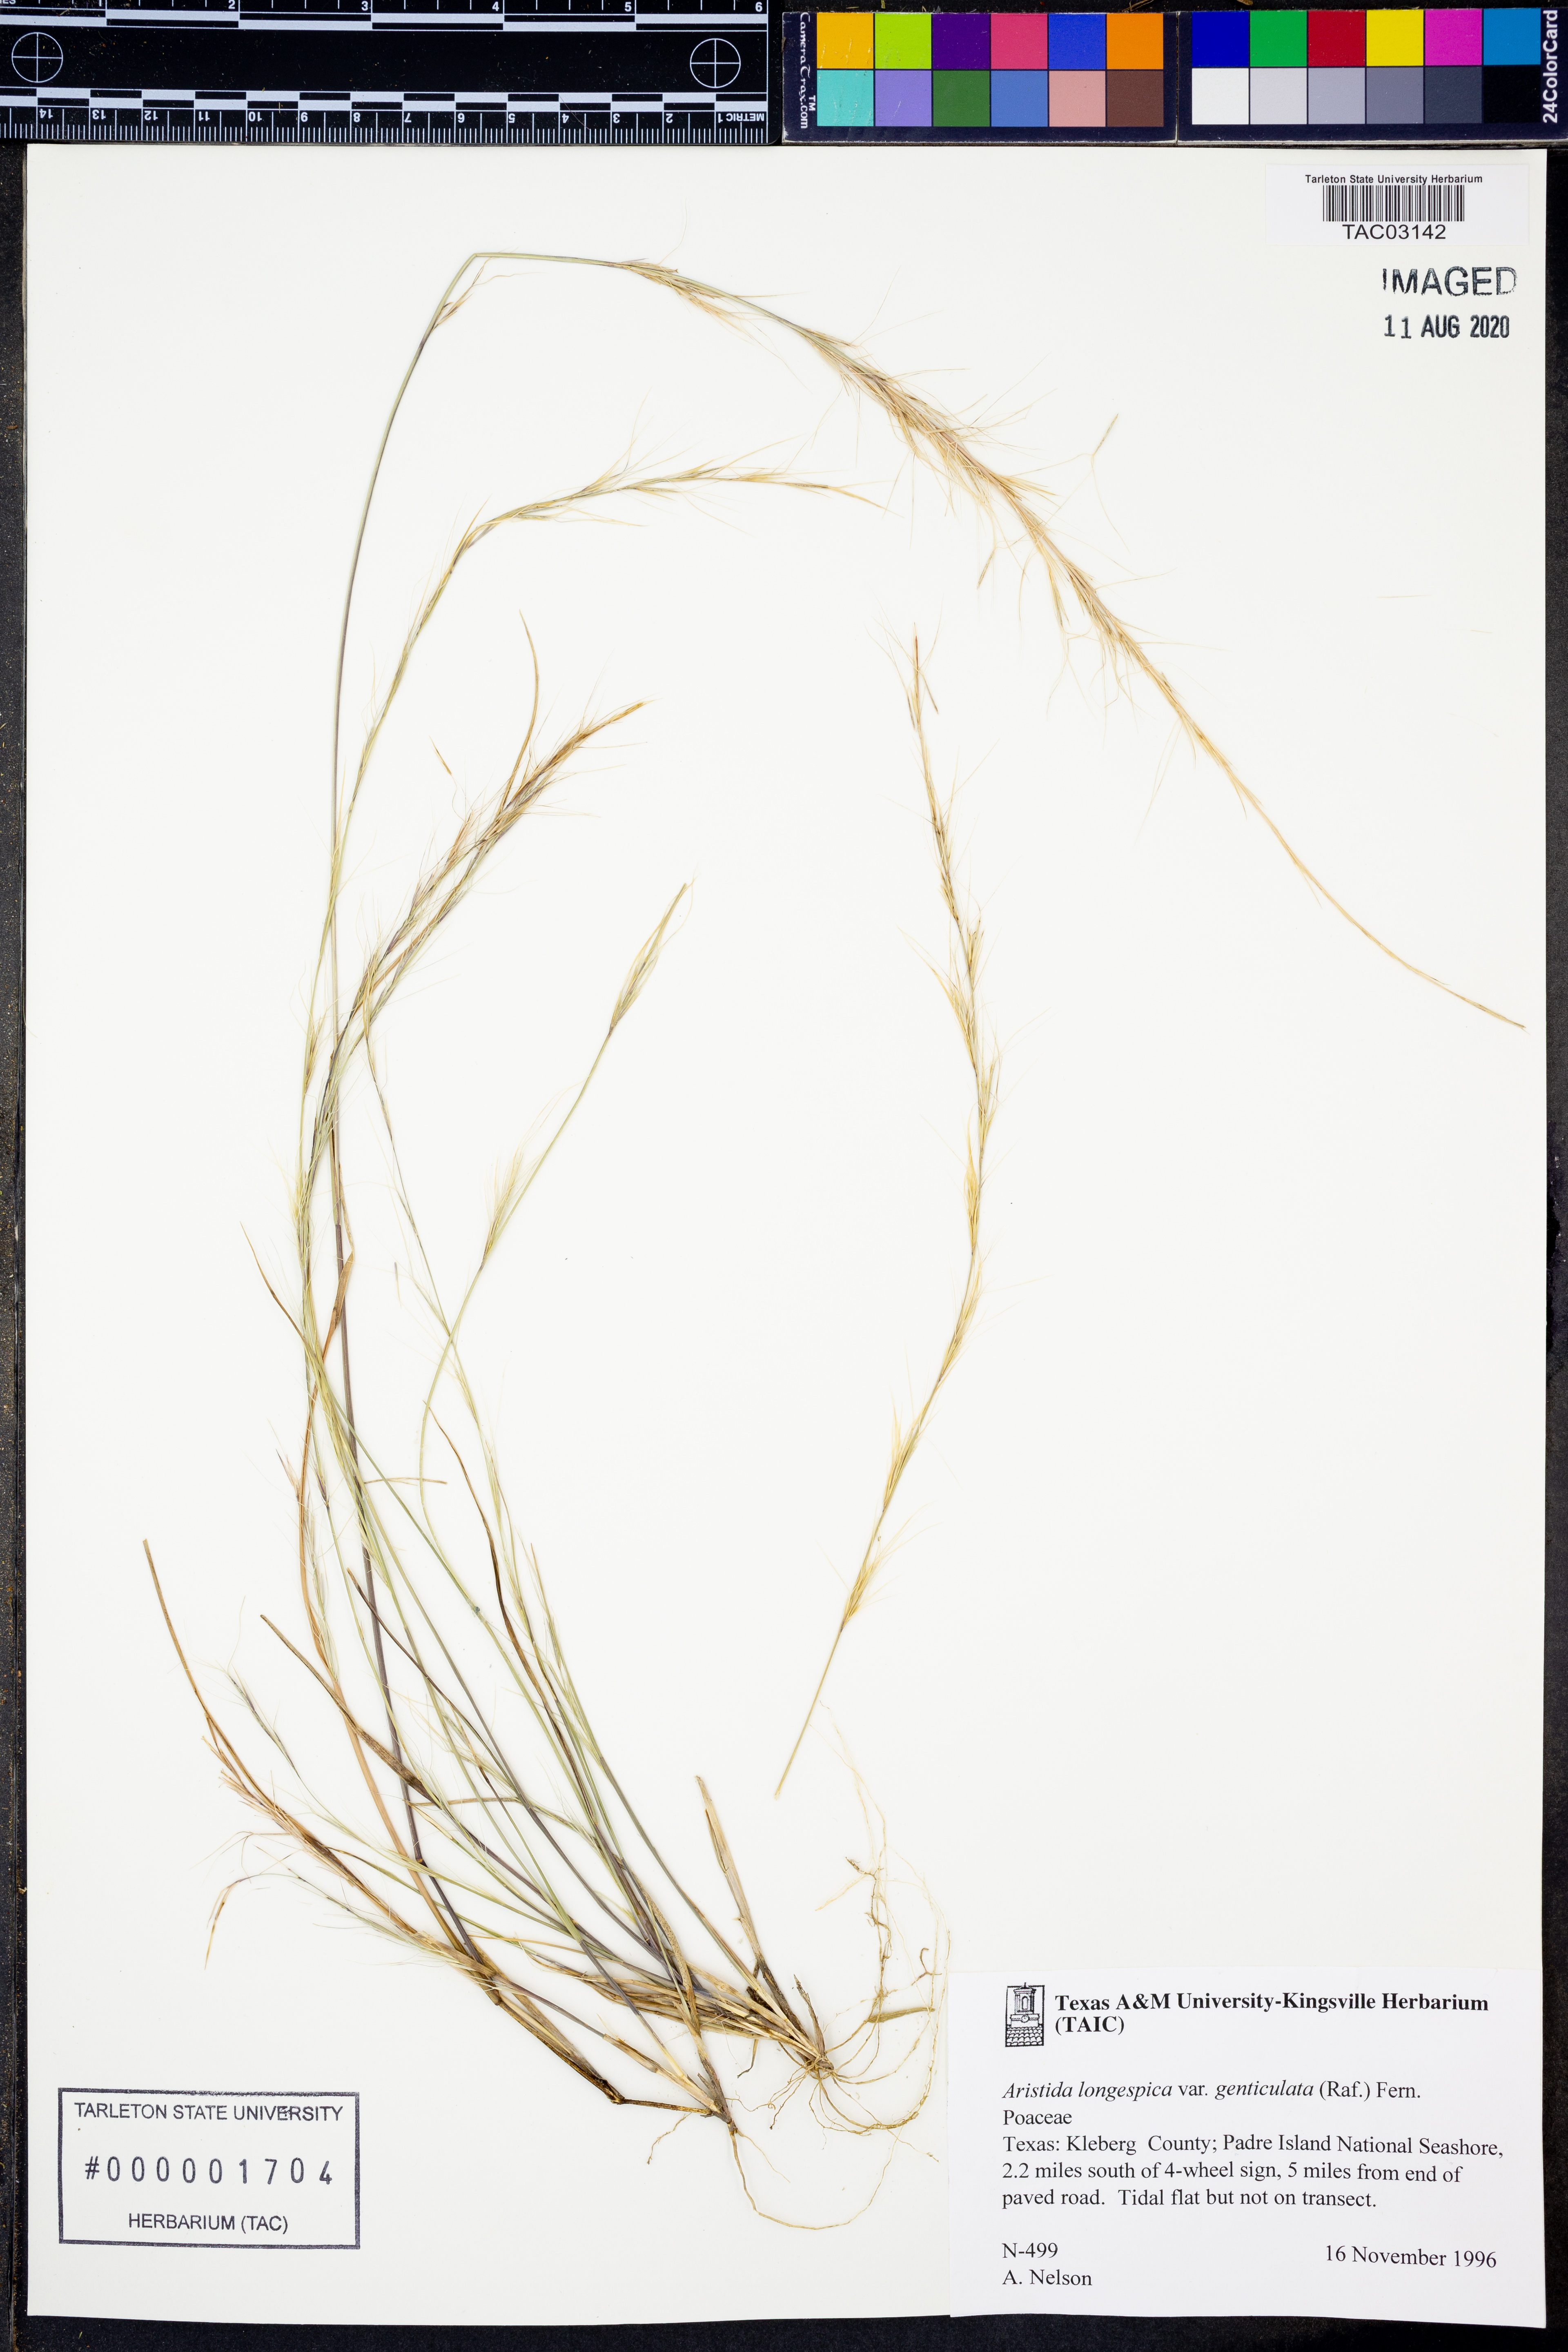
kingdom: Plantae
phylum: Tracheophyta
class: Liliopsida
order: Poales
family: Poaceae
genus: Aristida
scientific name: Aristida longespica
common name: Long-spiked triple-awned grass
